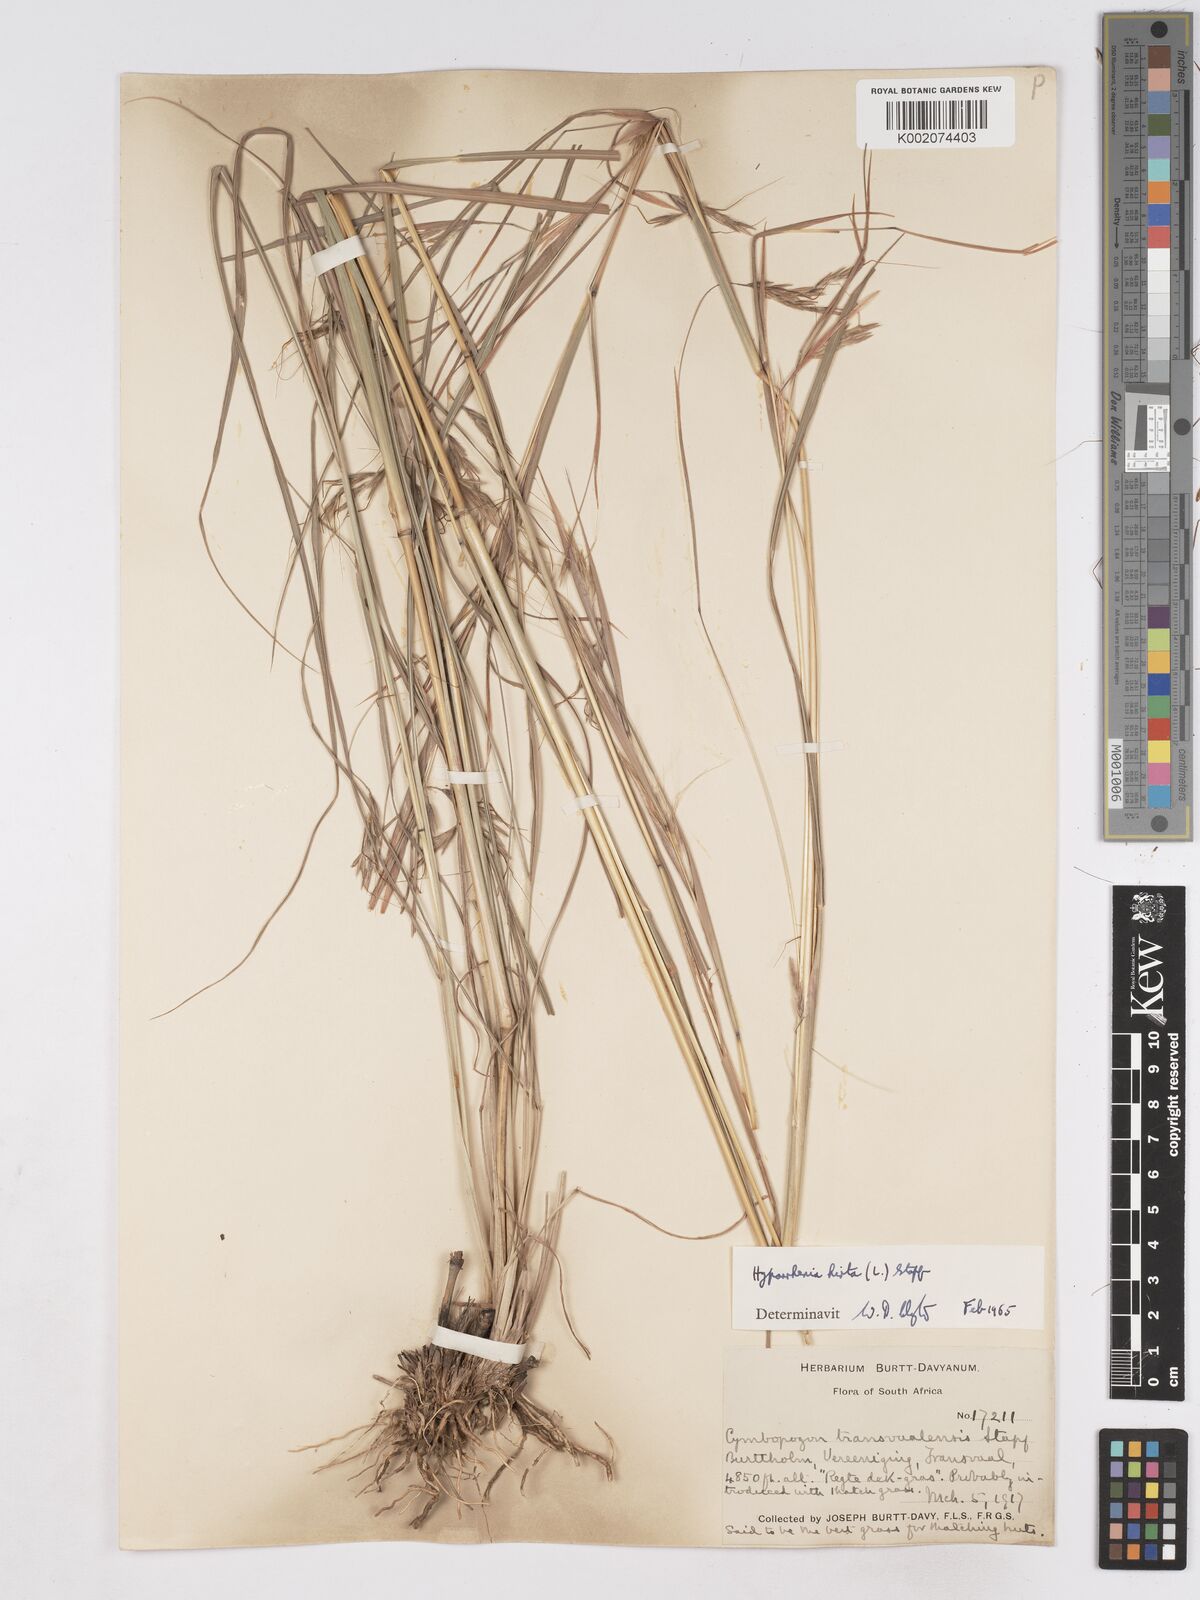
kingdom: Plantae
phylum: Tracheophyta
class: Liliopsida
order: Poales
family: Poaceae
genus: Hyparrhenia
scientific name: Hyparrhenia hirta
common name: Thatching grass
